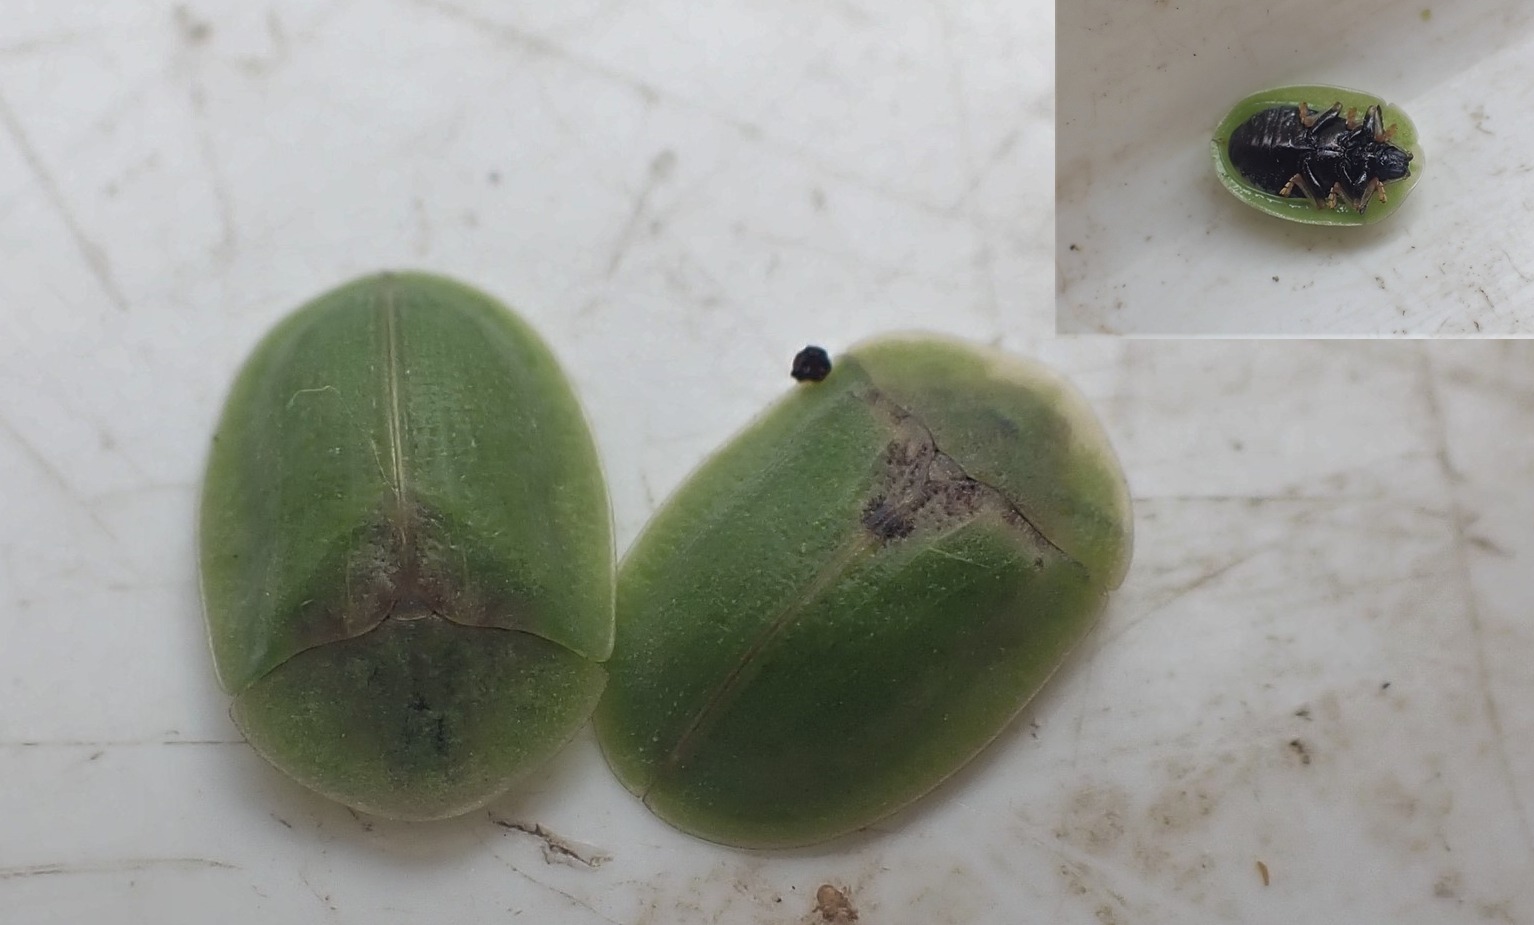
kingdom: Animalia
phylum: Arthropoda
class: Insecta
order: Coleoptera
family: Chrysomelidae
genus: Cassida
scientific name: Cassida rubiginosa
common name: Tidselskjoldbille
